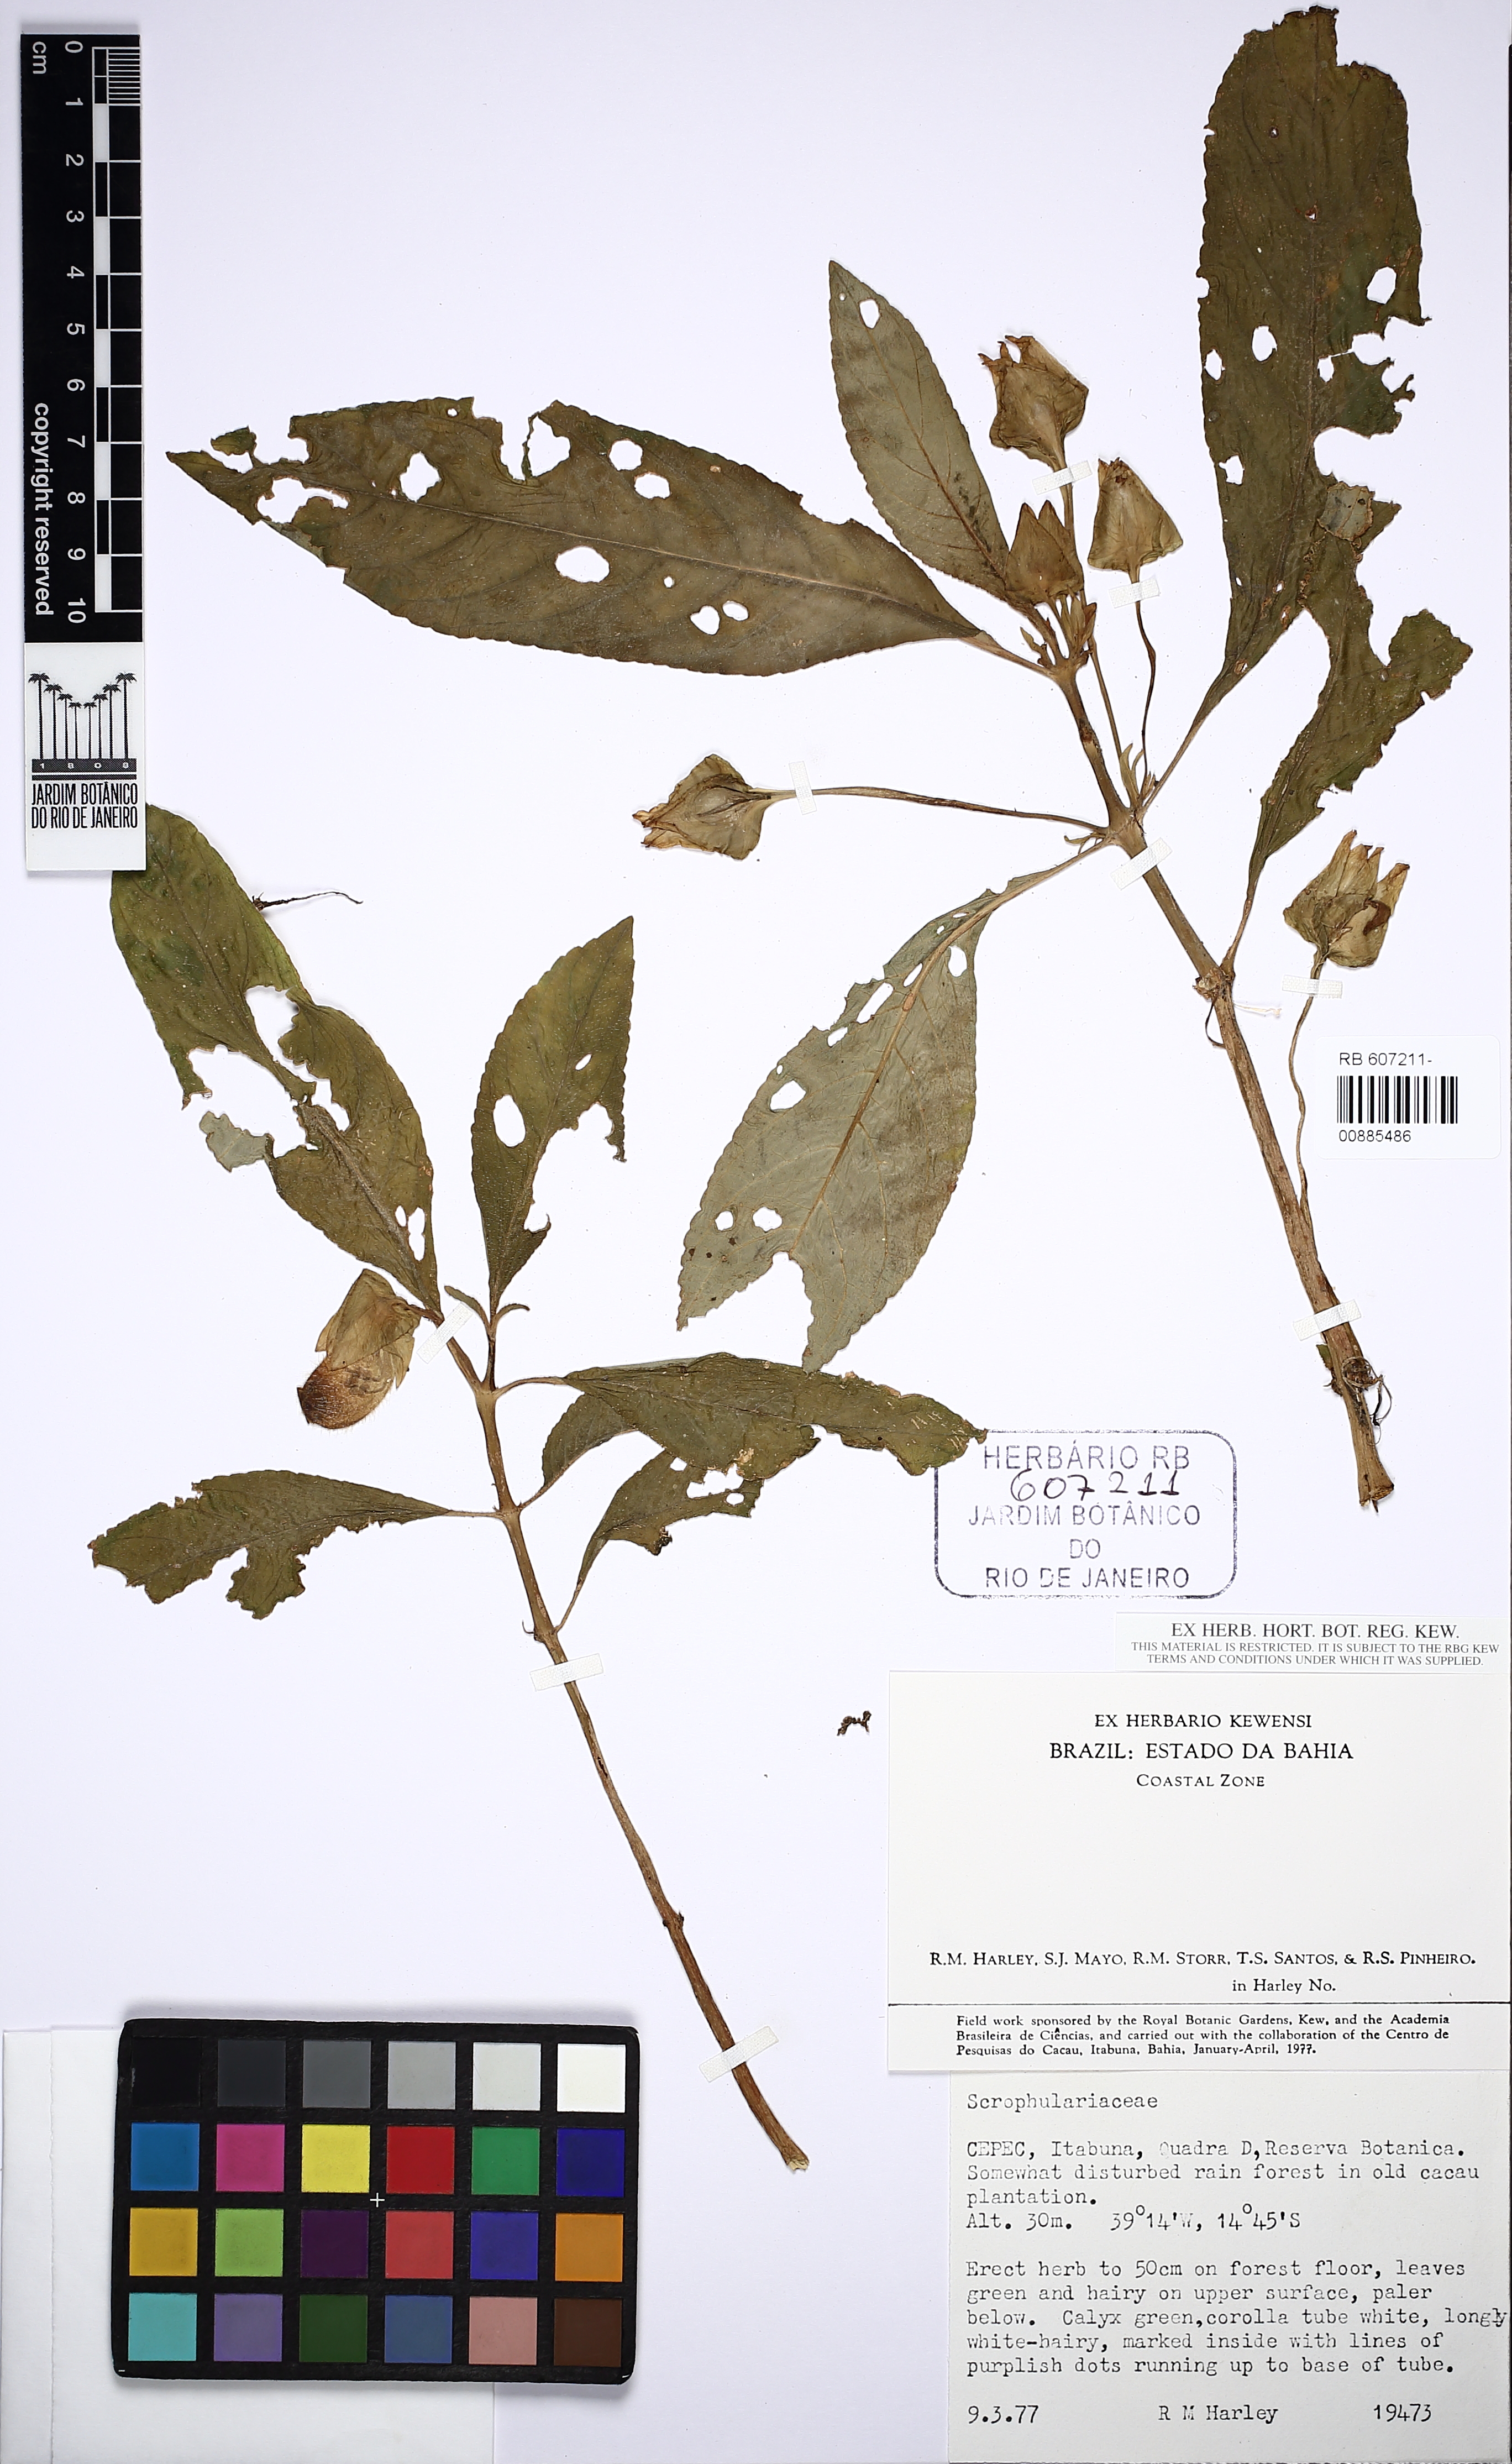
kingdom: Plantae
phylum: Tracheophyta
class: Magnoliopsida
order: Lamiales
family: Gesneriaceae
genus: Sinningia
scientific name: Sinningia barbata
